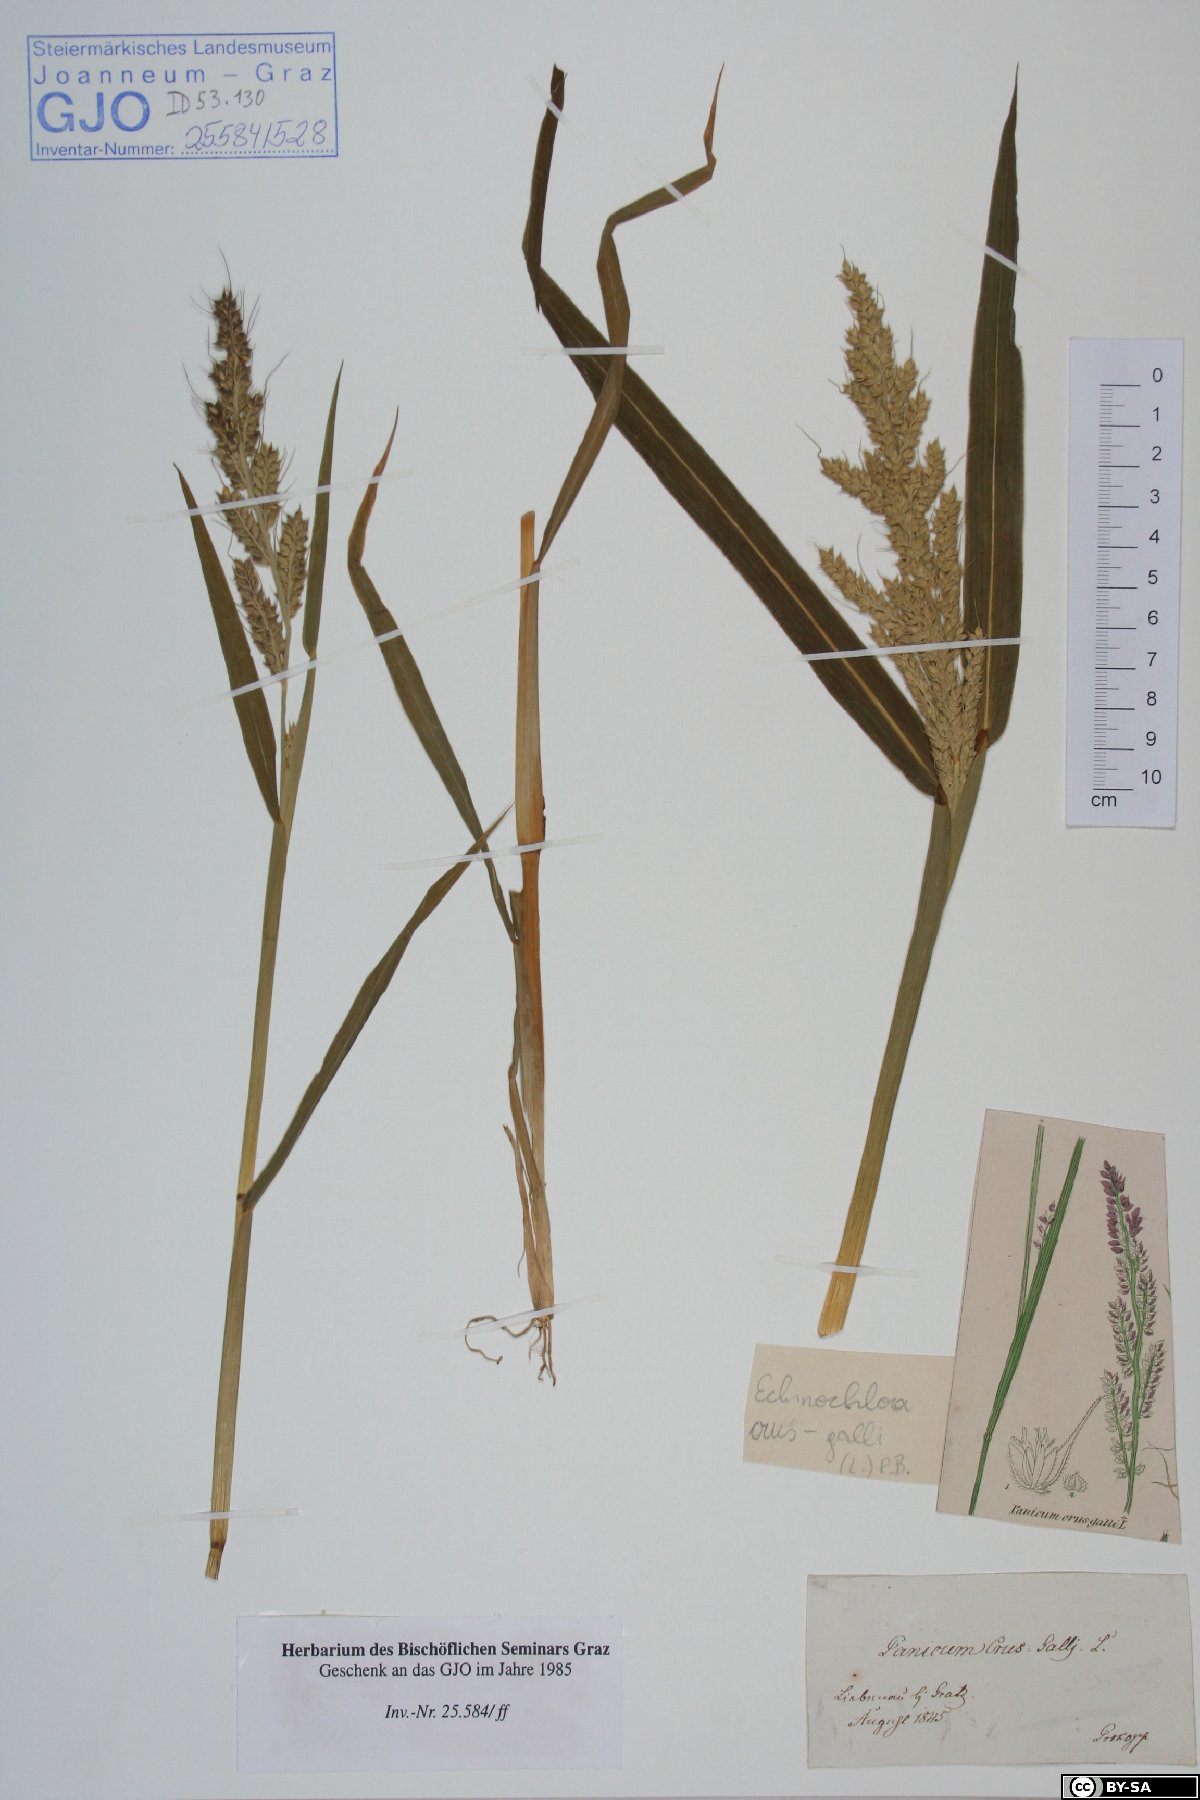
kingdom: Plantae
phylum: Tracheophyta
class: Liliopsida
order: Poales
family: Poaceae
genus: Echinochloa
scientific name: Echinochloa crus-galli
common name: Cockspur
